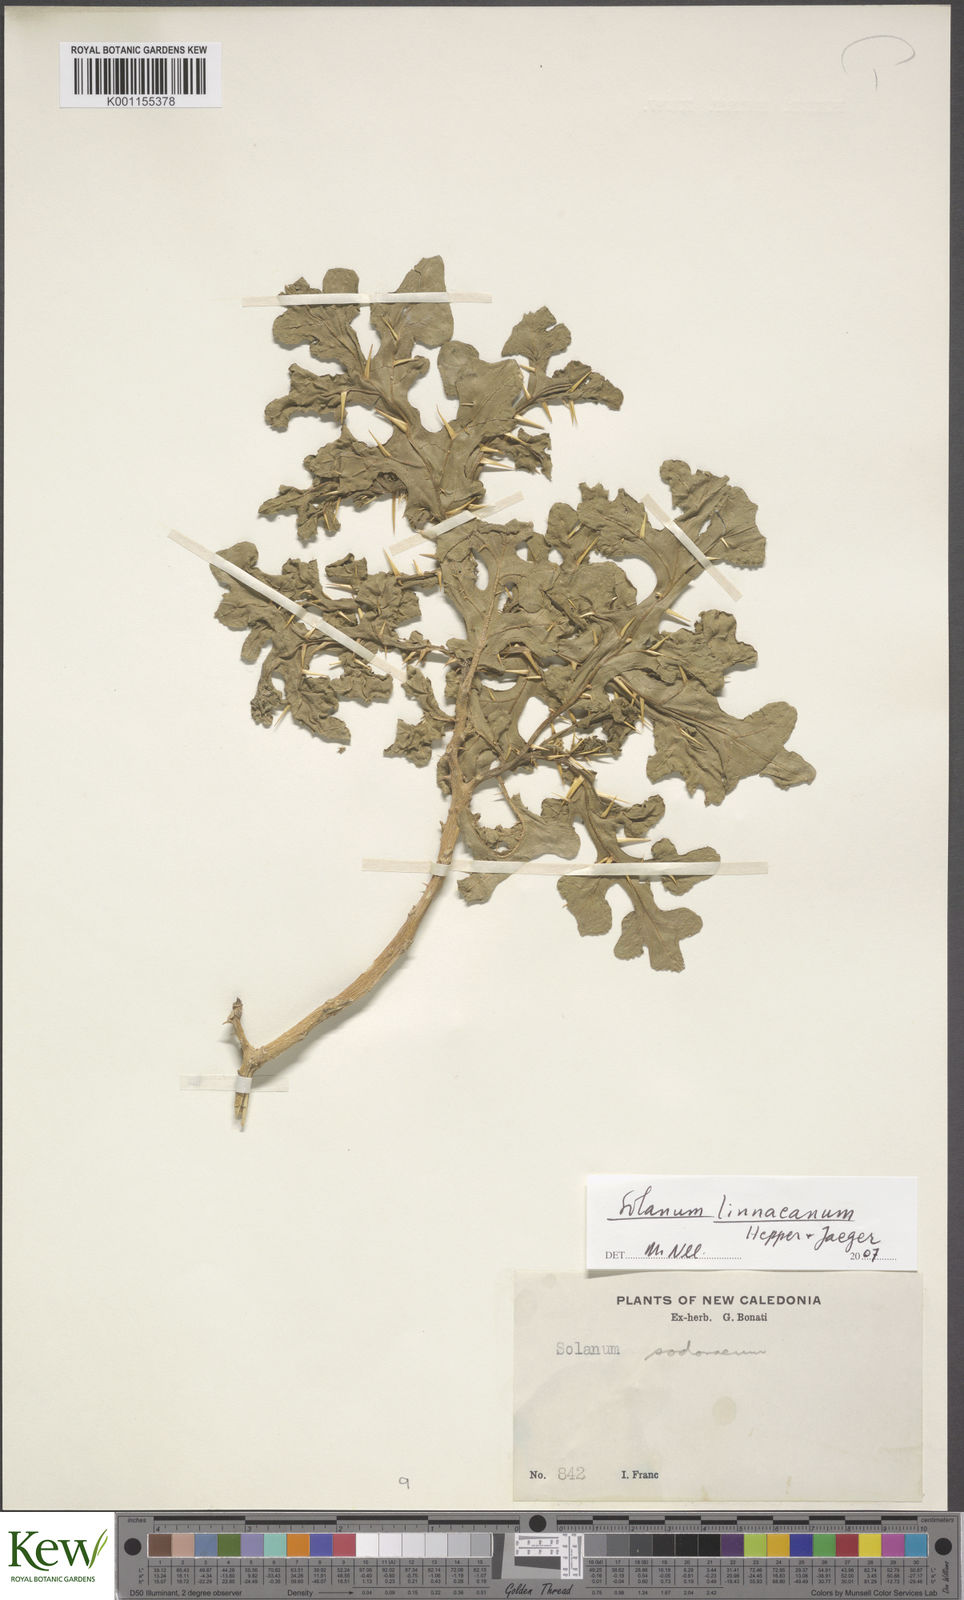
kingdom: Plantae
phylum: Tracheophyta
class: Magnoliopsida
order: Solanales
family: Solanaceae
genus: Solanum
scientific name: Solanum linnaeanum
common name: Nightshade
